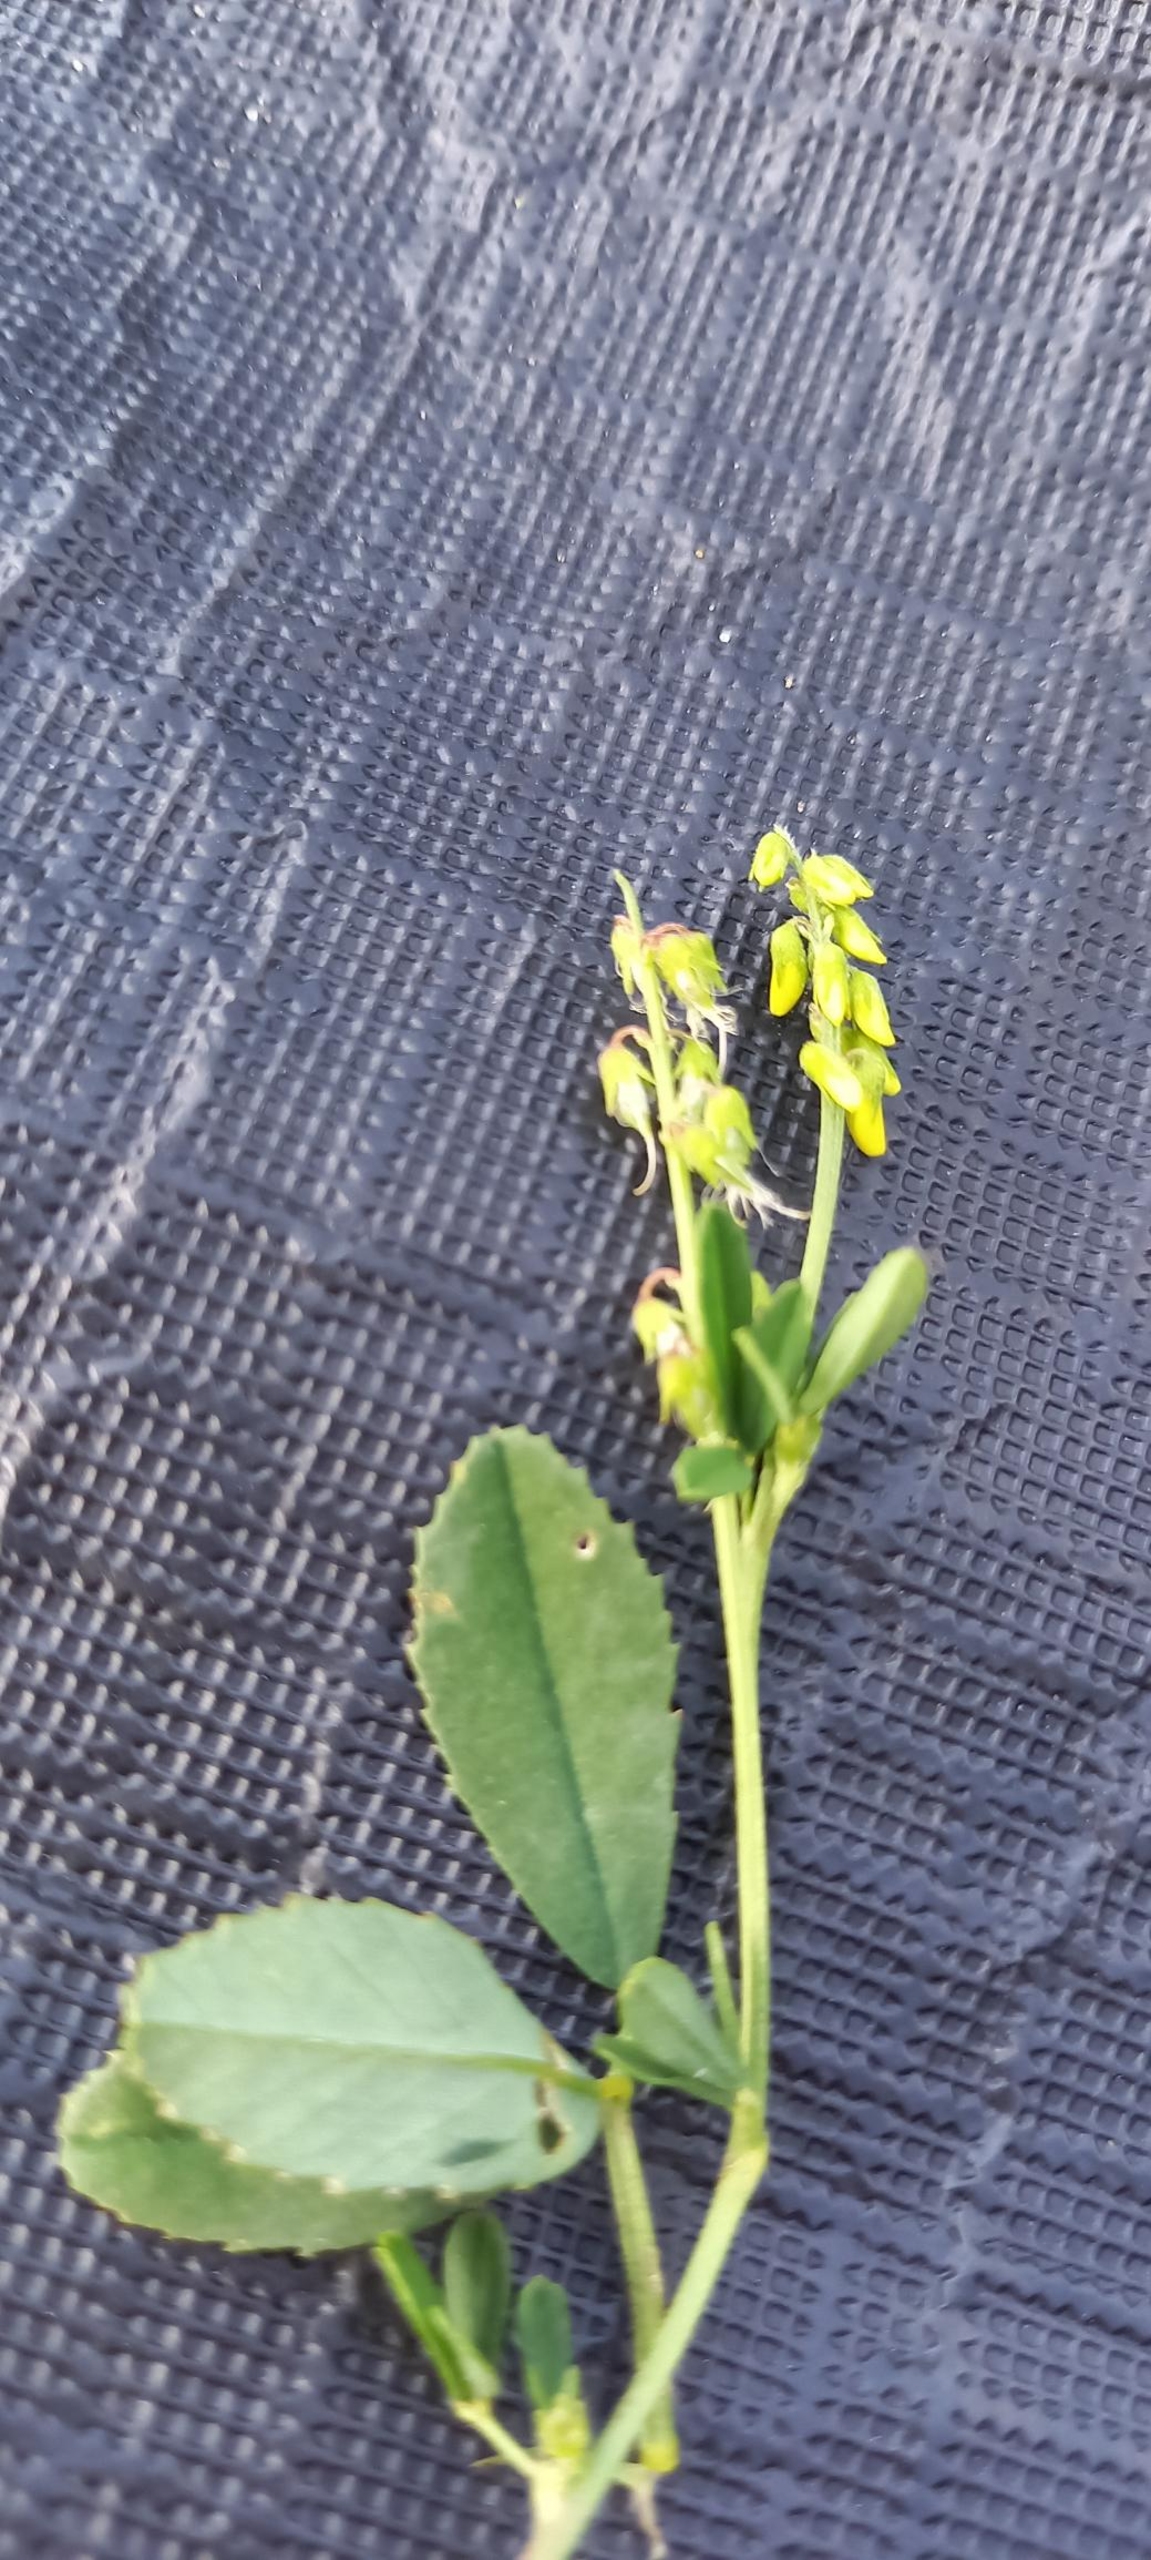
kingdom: Plantae
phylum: Tracheophyta
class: Magnoliopsida
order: Fabales
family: Fabaceae
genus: Melilotus
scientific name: Melilotus
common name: Stenkløverslægten
